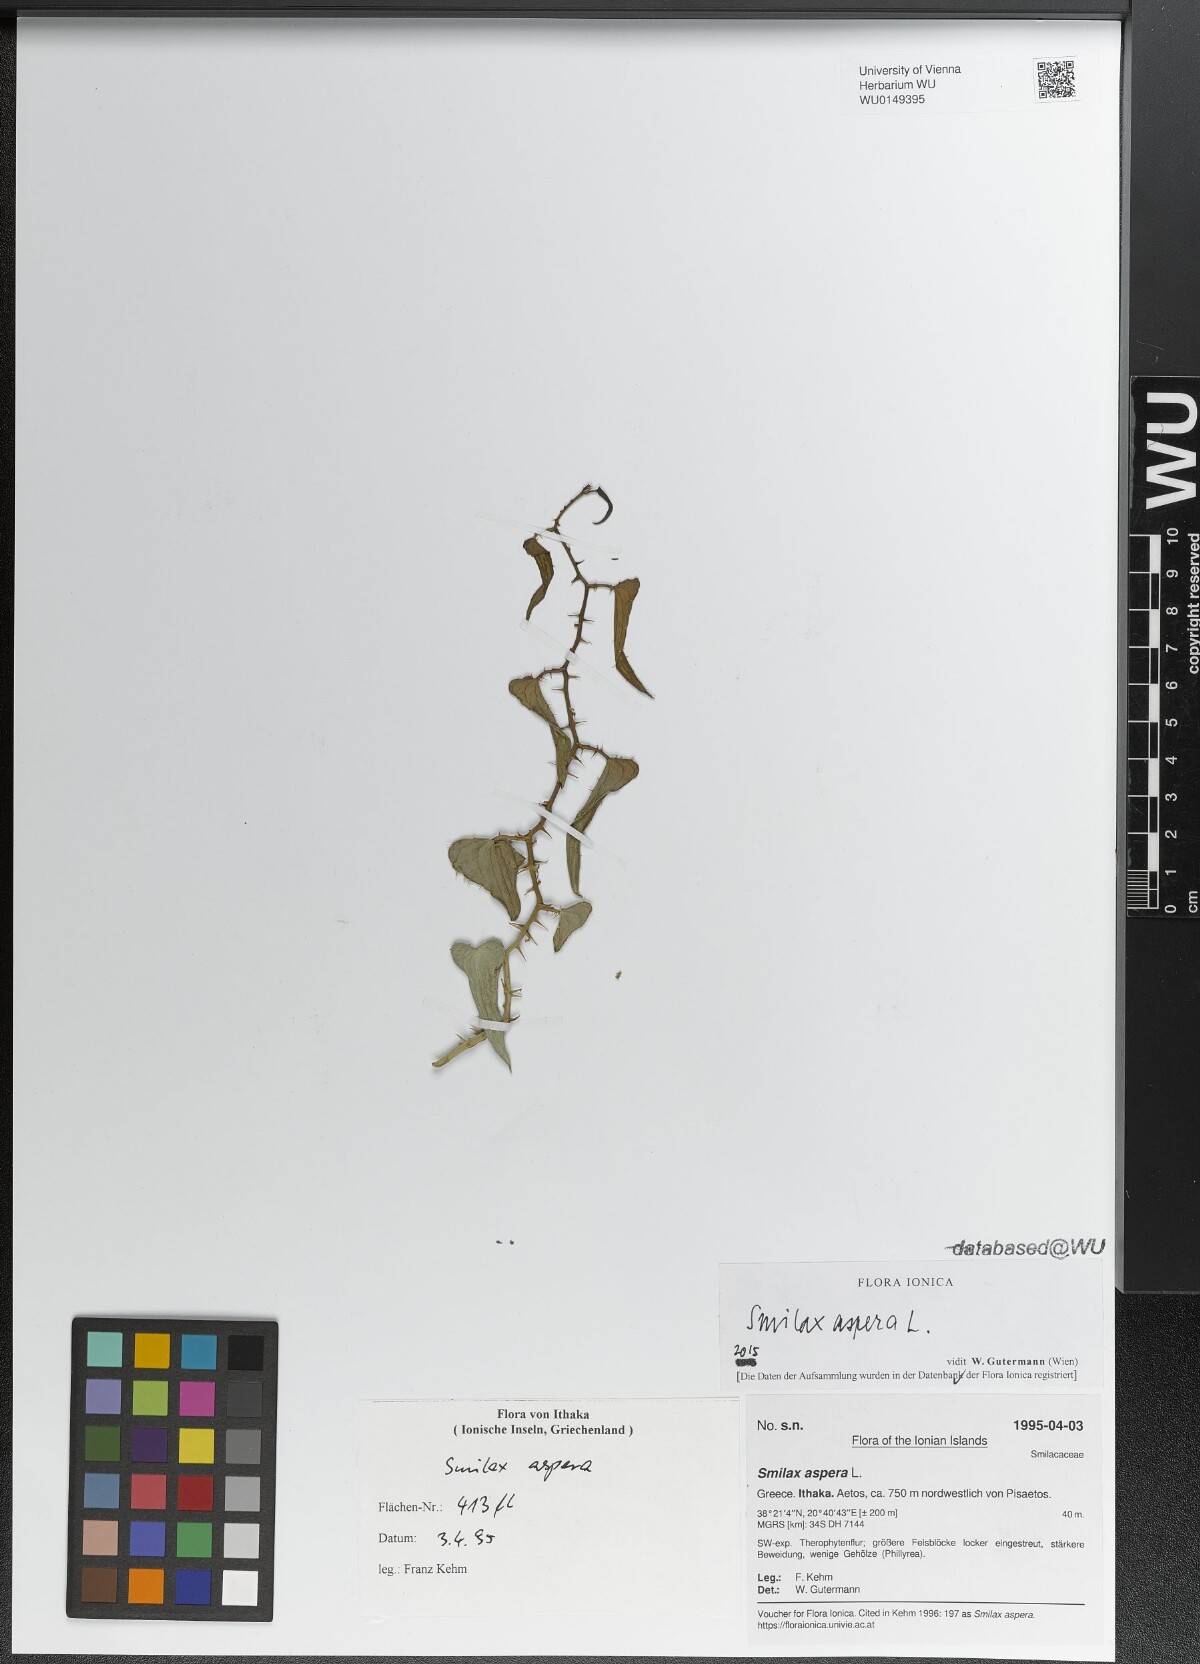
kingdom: Plantae
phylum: Tracheophyta
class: Liliopsida
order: Liliales
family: Smilacaceae
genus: Smilax
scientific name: Smilax aspera
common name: Common smilax
